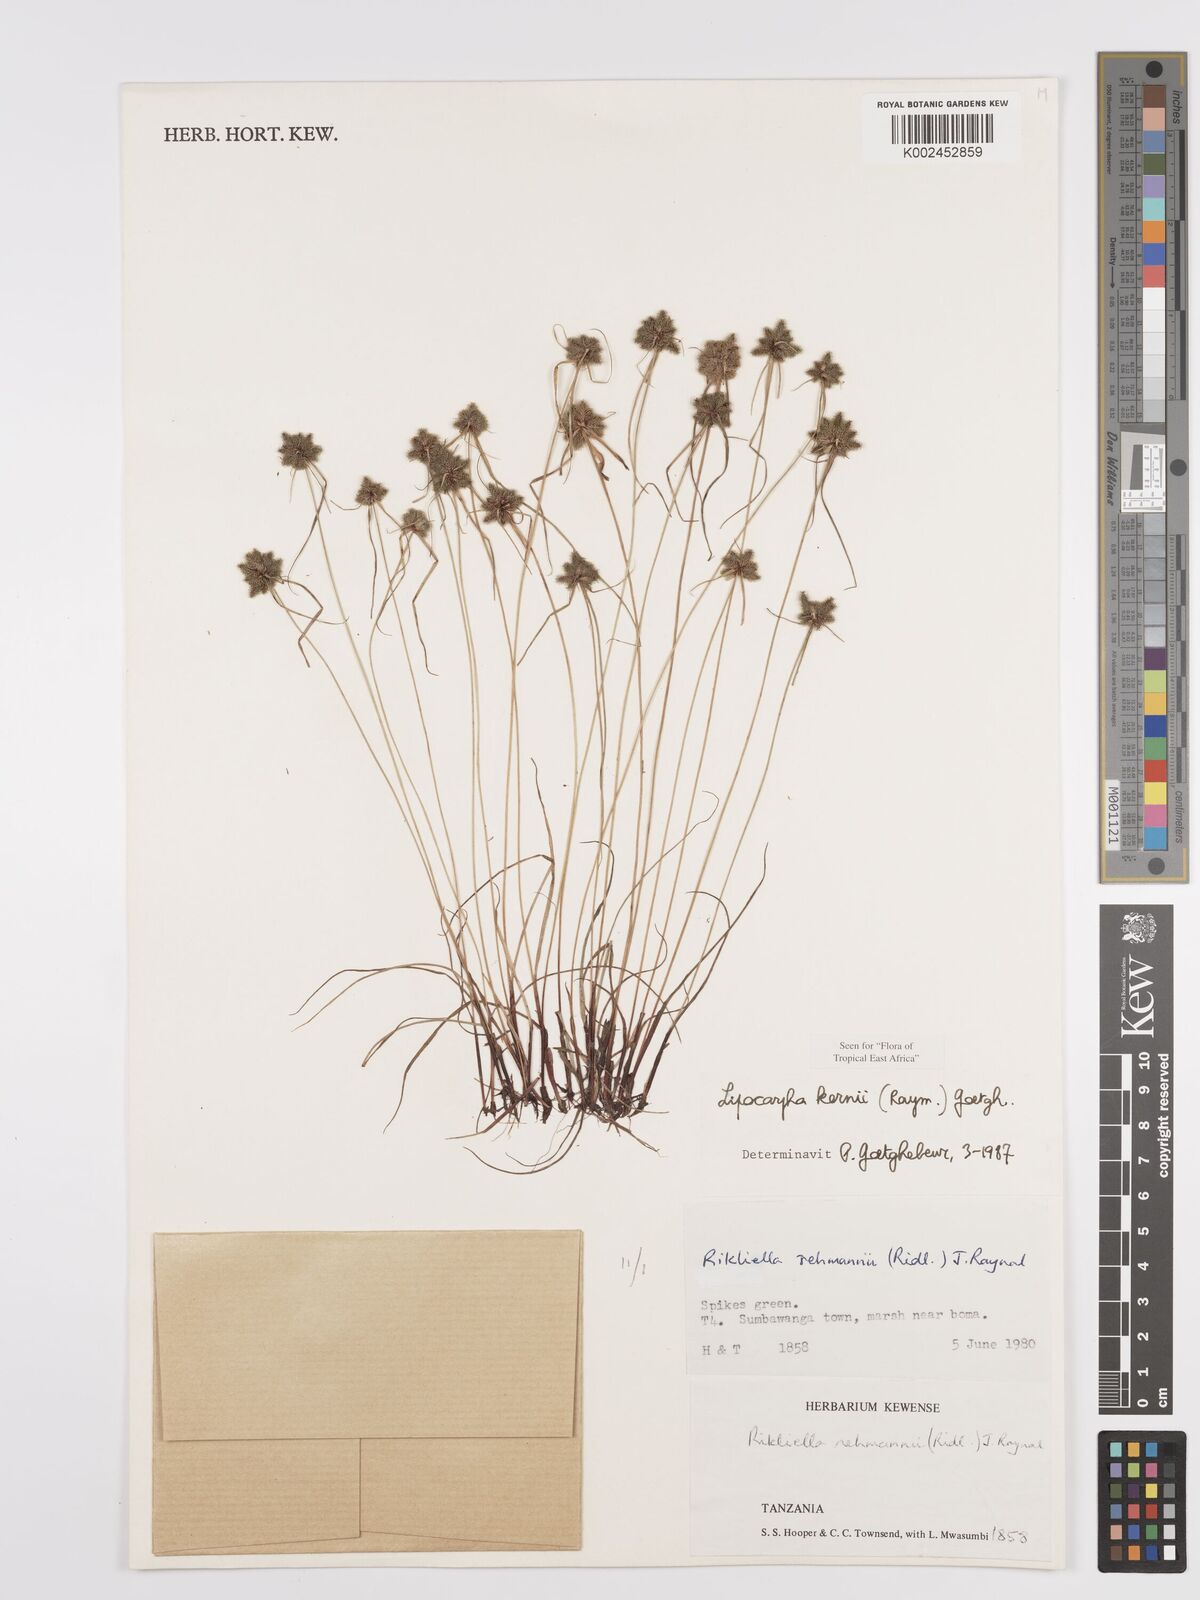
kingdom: Plantae
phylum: Tracheophyta
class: Liliopsida
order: Poales
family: Cyperaceae
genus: Cyperus
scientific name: Cyperus kernii
